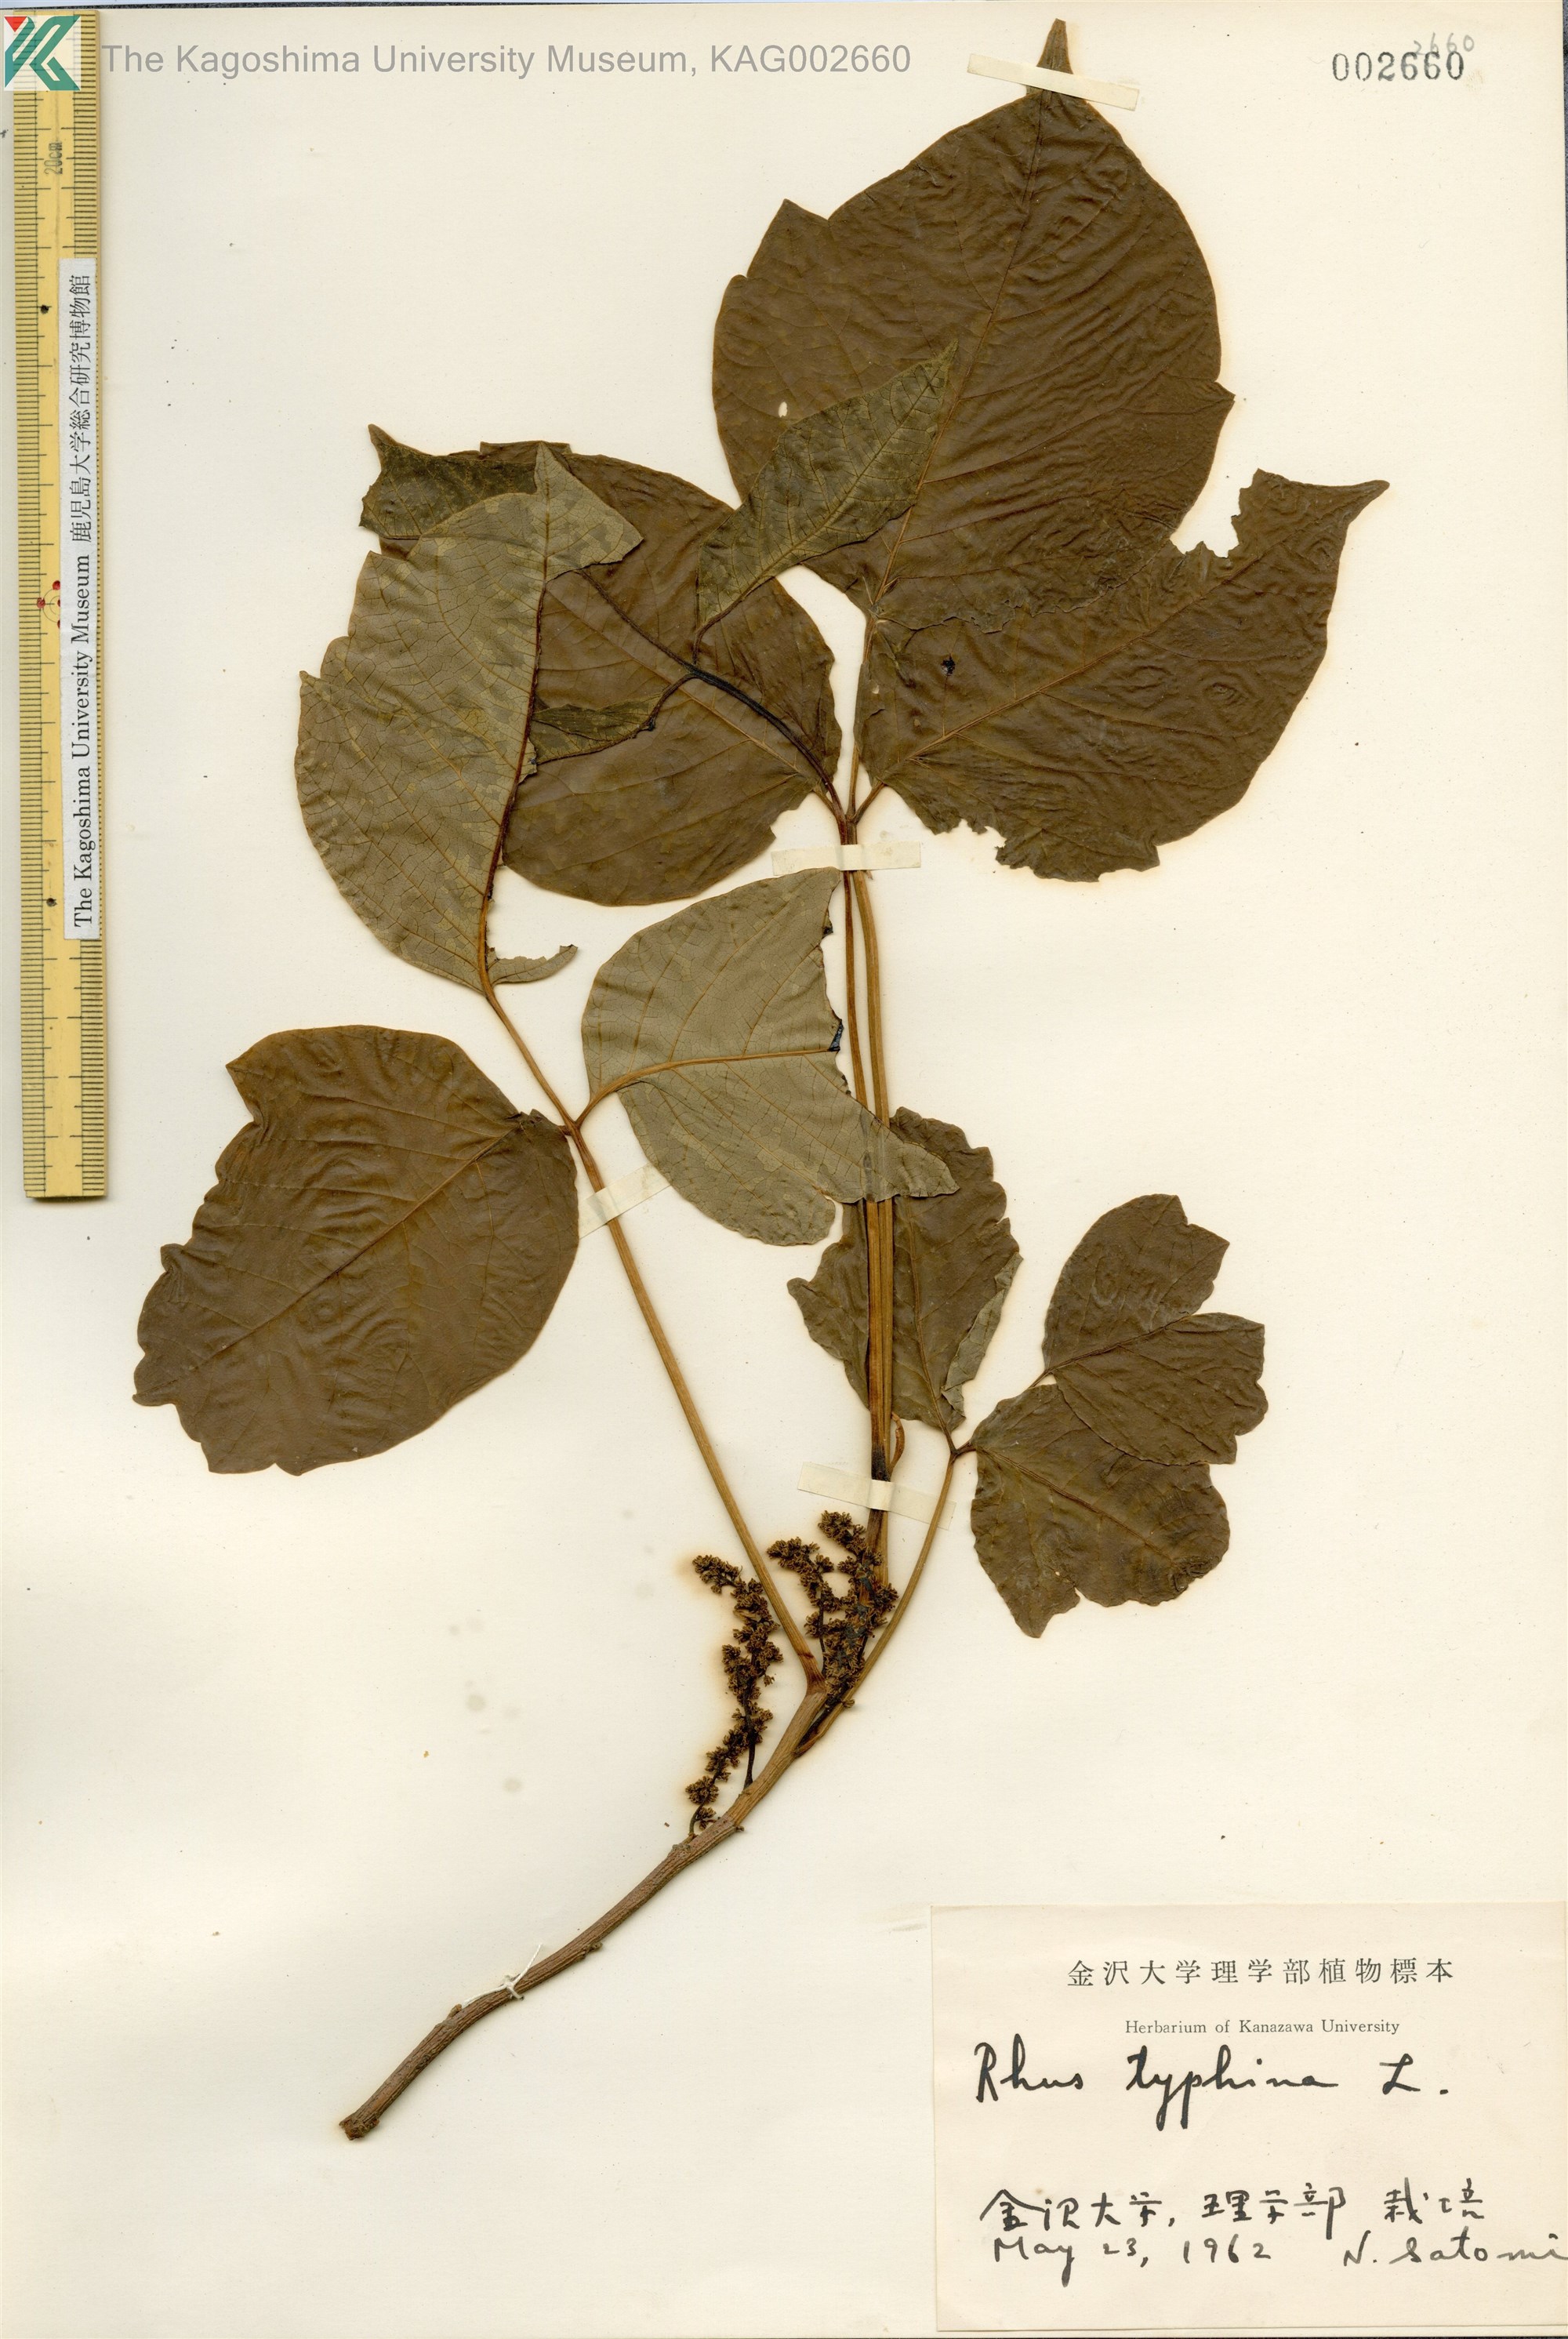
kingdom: Plantae
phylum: Tracheophyta
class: Magnoliopsida
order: Sapindales
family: Anacardiaceae
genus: Rhus
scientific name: Rhus typhina
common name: Staghorn sumac
